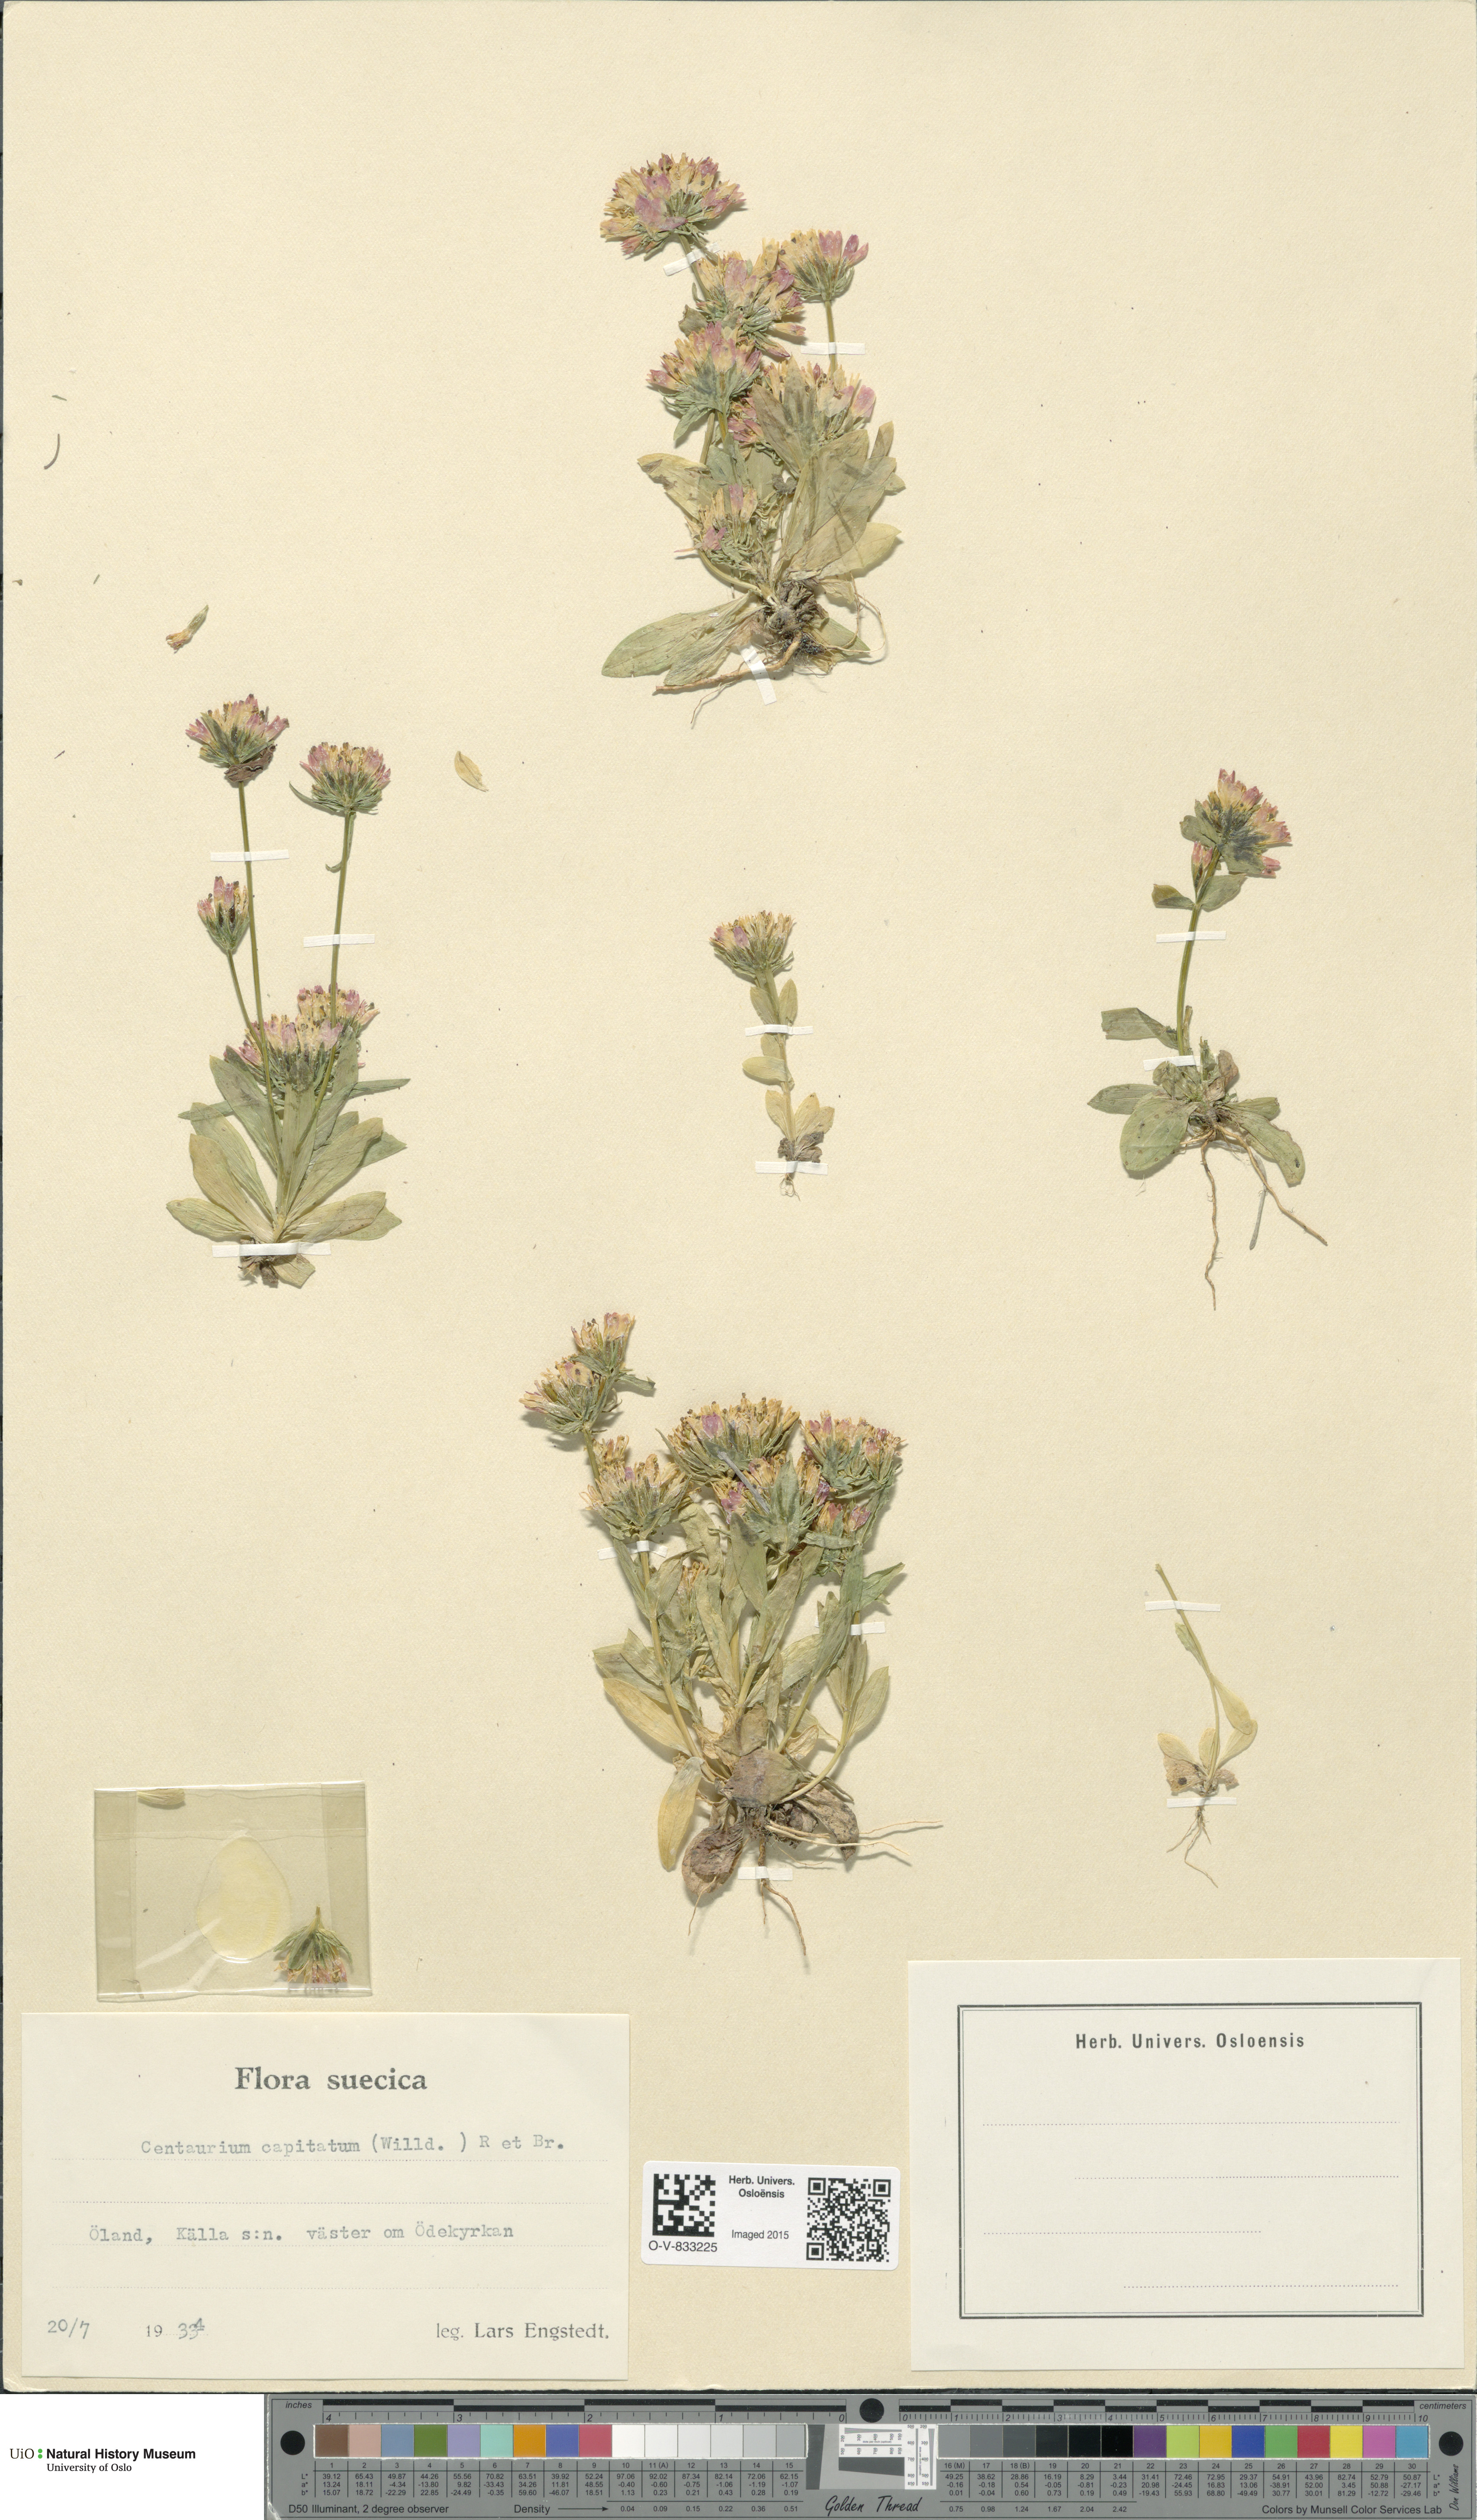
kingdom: Plantae
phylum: Tracheophyta
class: Magnoliopsida
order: Gentianales
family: Gentianaceae
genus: Centaurium
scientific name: Centaurium erythraea
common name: Common centaury
